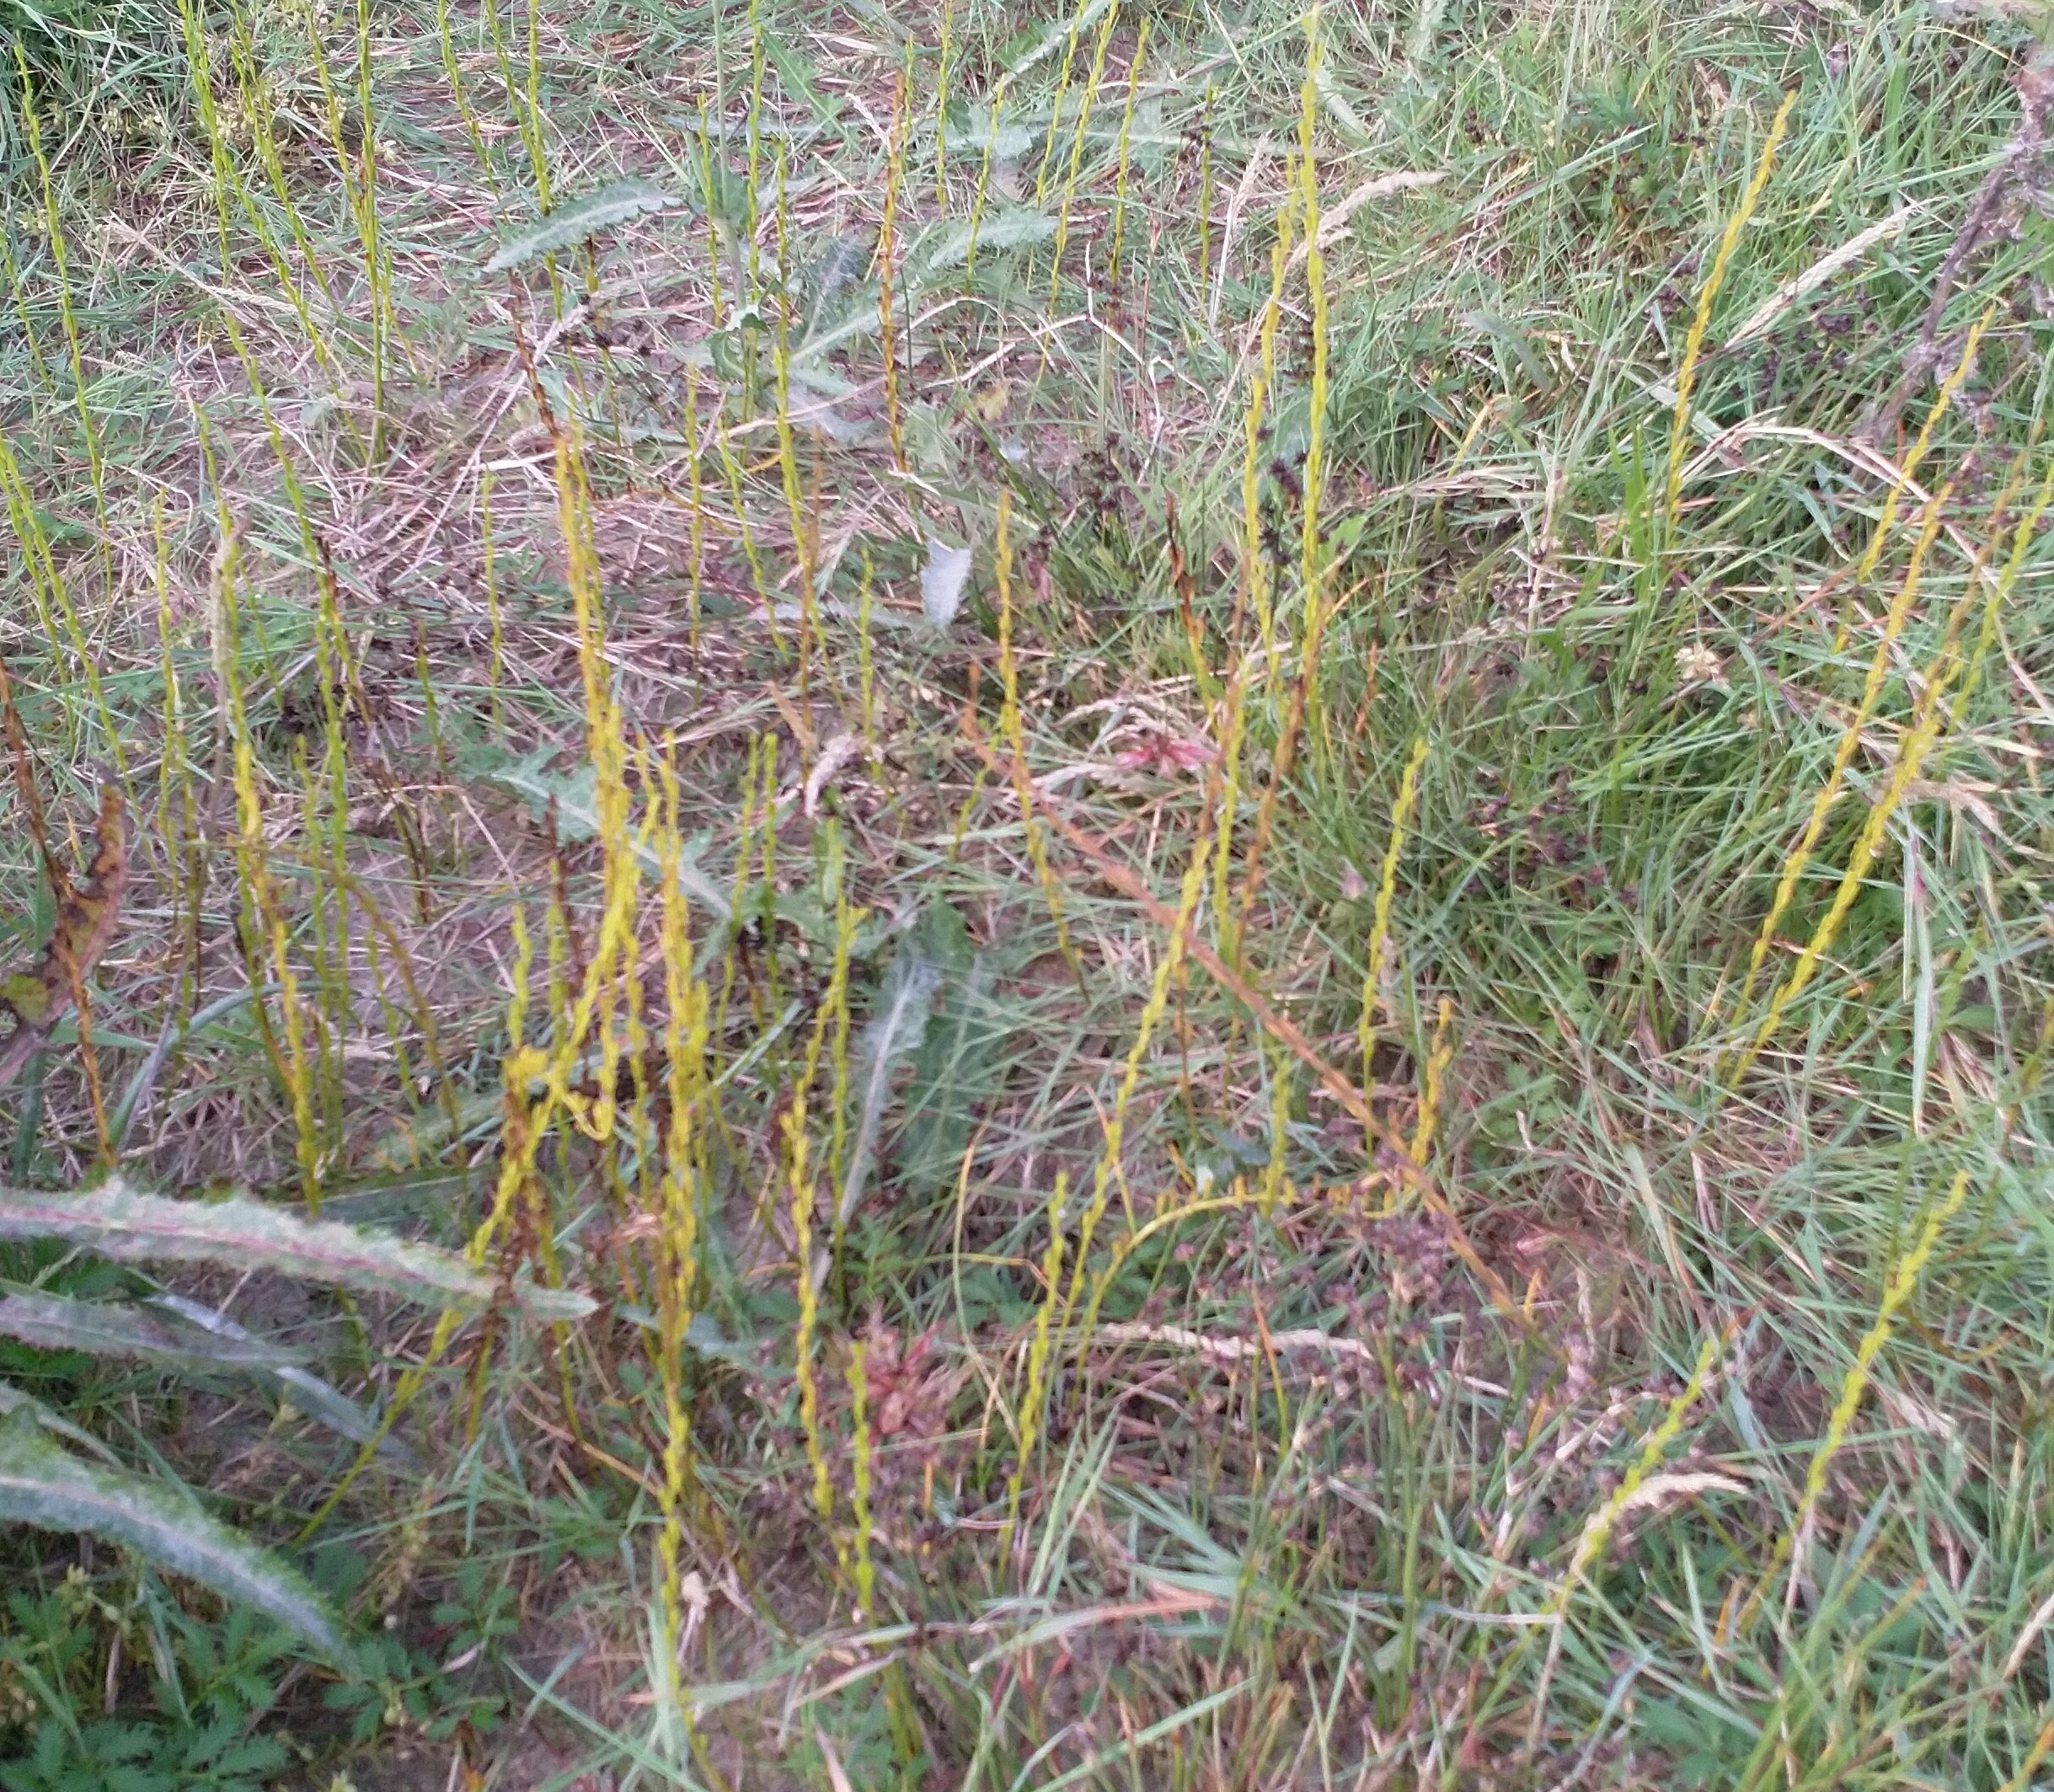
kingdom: Plantae
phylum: Tracheophyta
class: Liliopsida
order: Alismatales
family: Juncaginaceae
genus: Triglochin
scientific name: Triglochin palustris
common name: Kær-trehage
